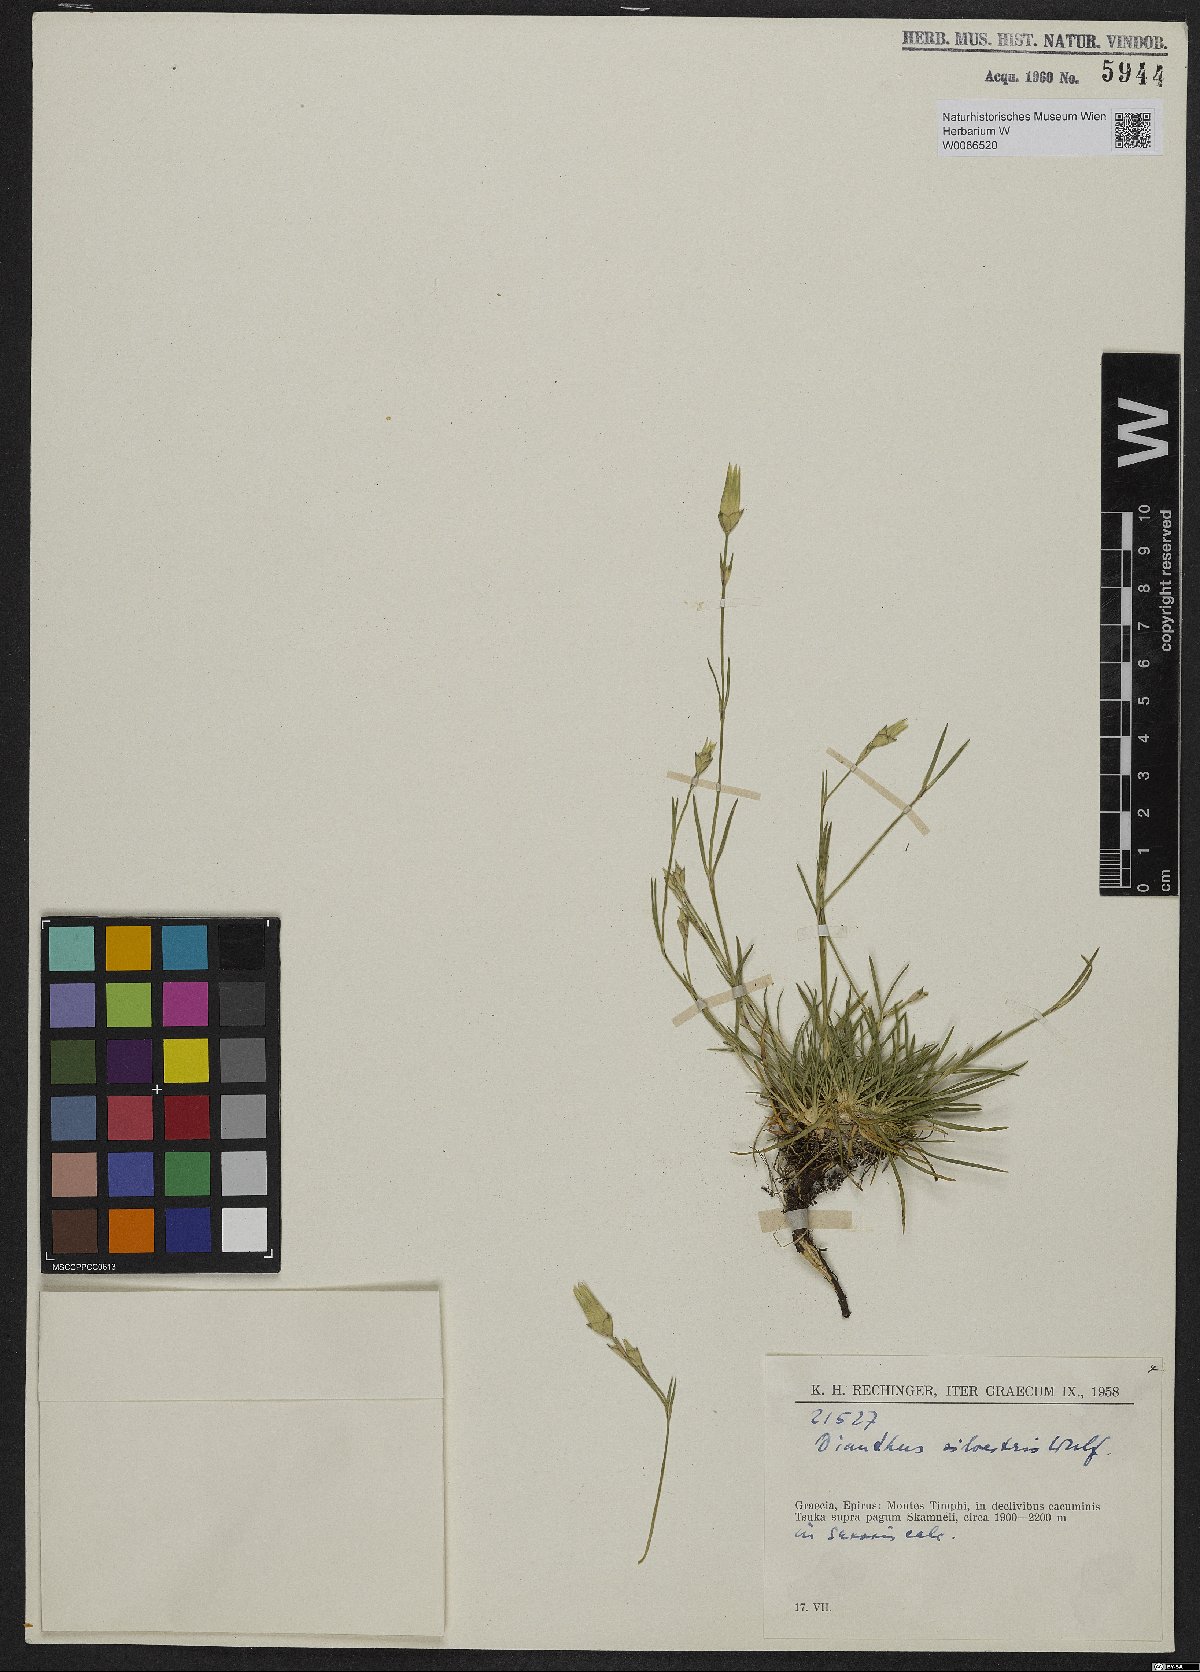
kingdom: Plantae
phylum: Tracheophyta
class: Magnoliopsida
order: Caryophyllales
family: Caryophyllaceae
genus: Dianthus
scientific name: Dianthus sylvestris
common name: Wood pink
